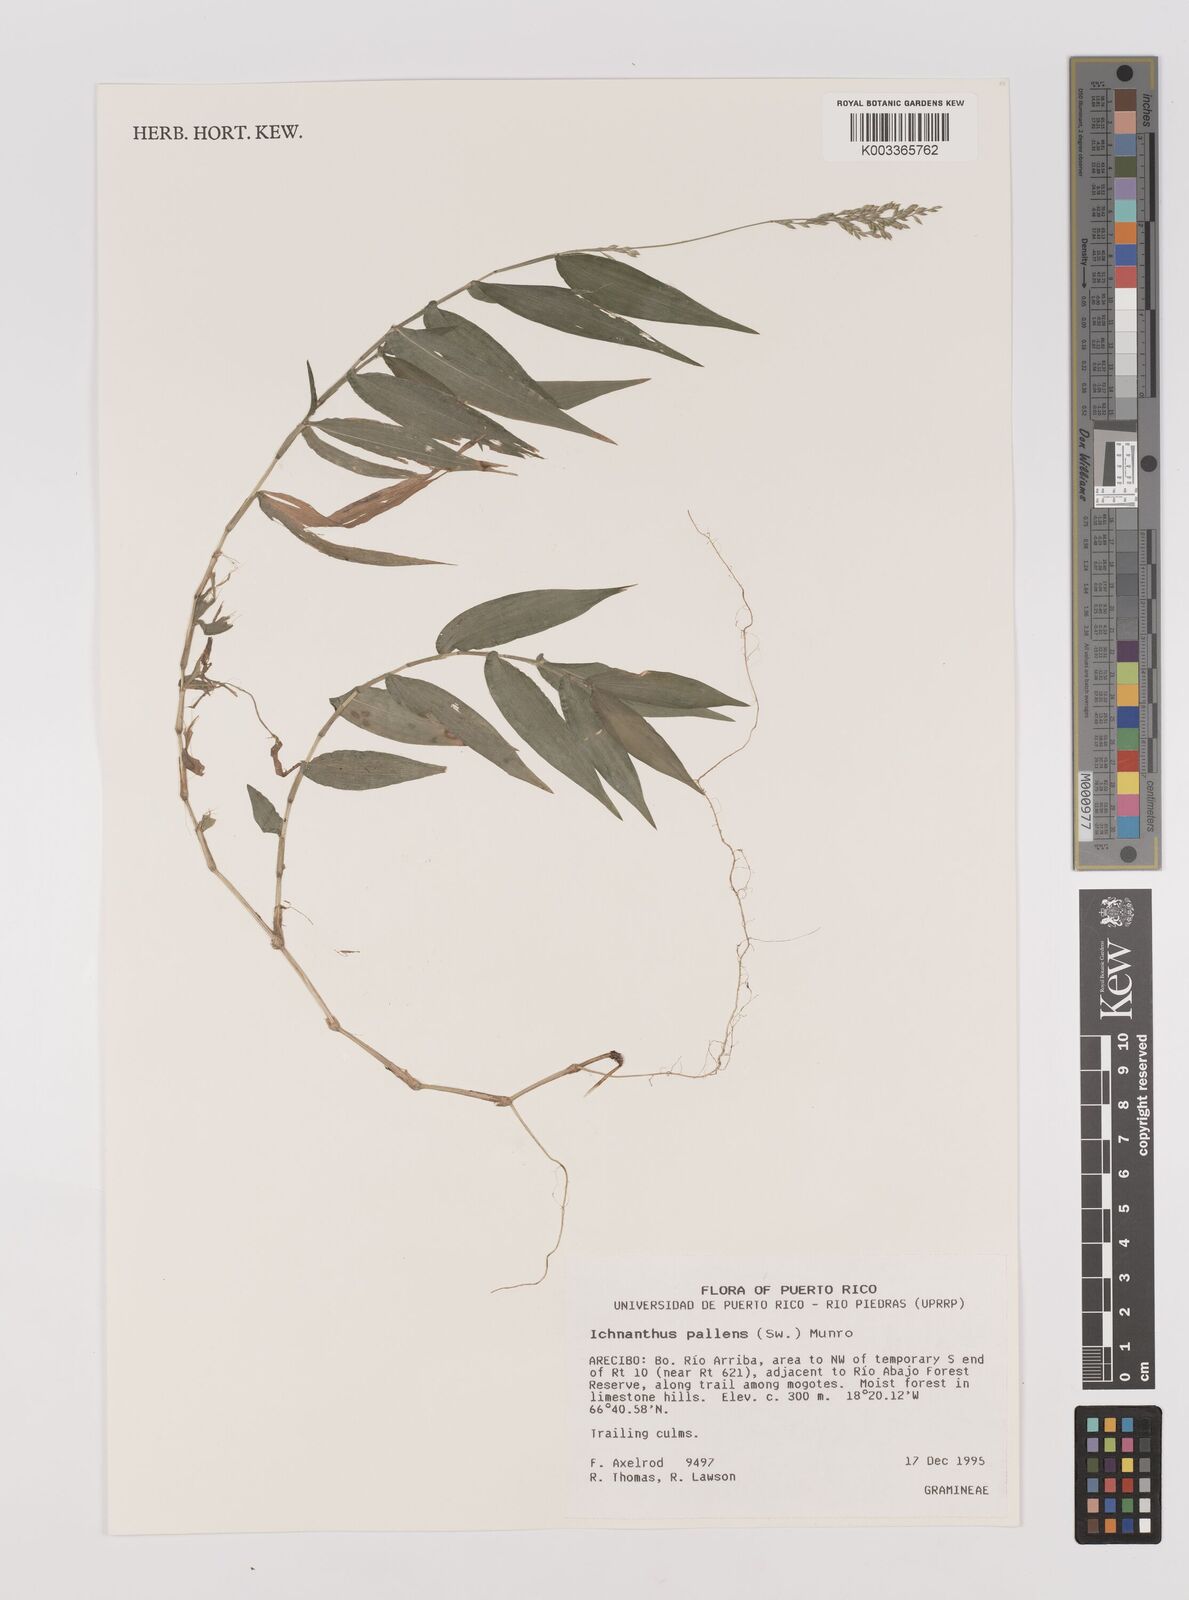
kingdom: Plantae
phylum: Tracheophyta
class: Liliopsida
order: Poales
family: Poaceae
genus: Ichnanthus
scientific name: Ichnanthus pallens
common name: Water grass
